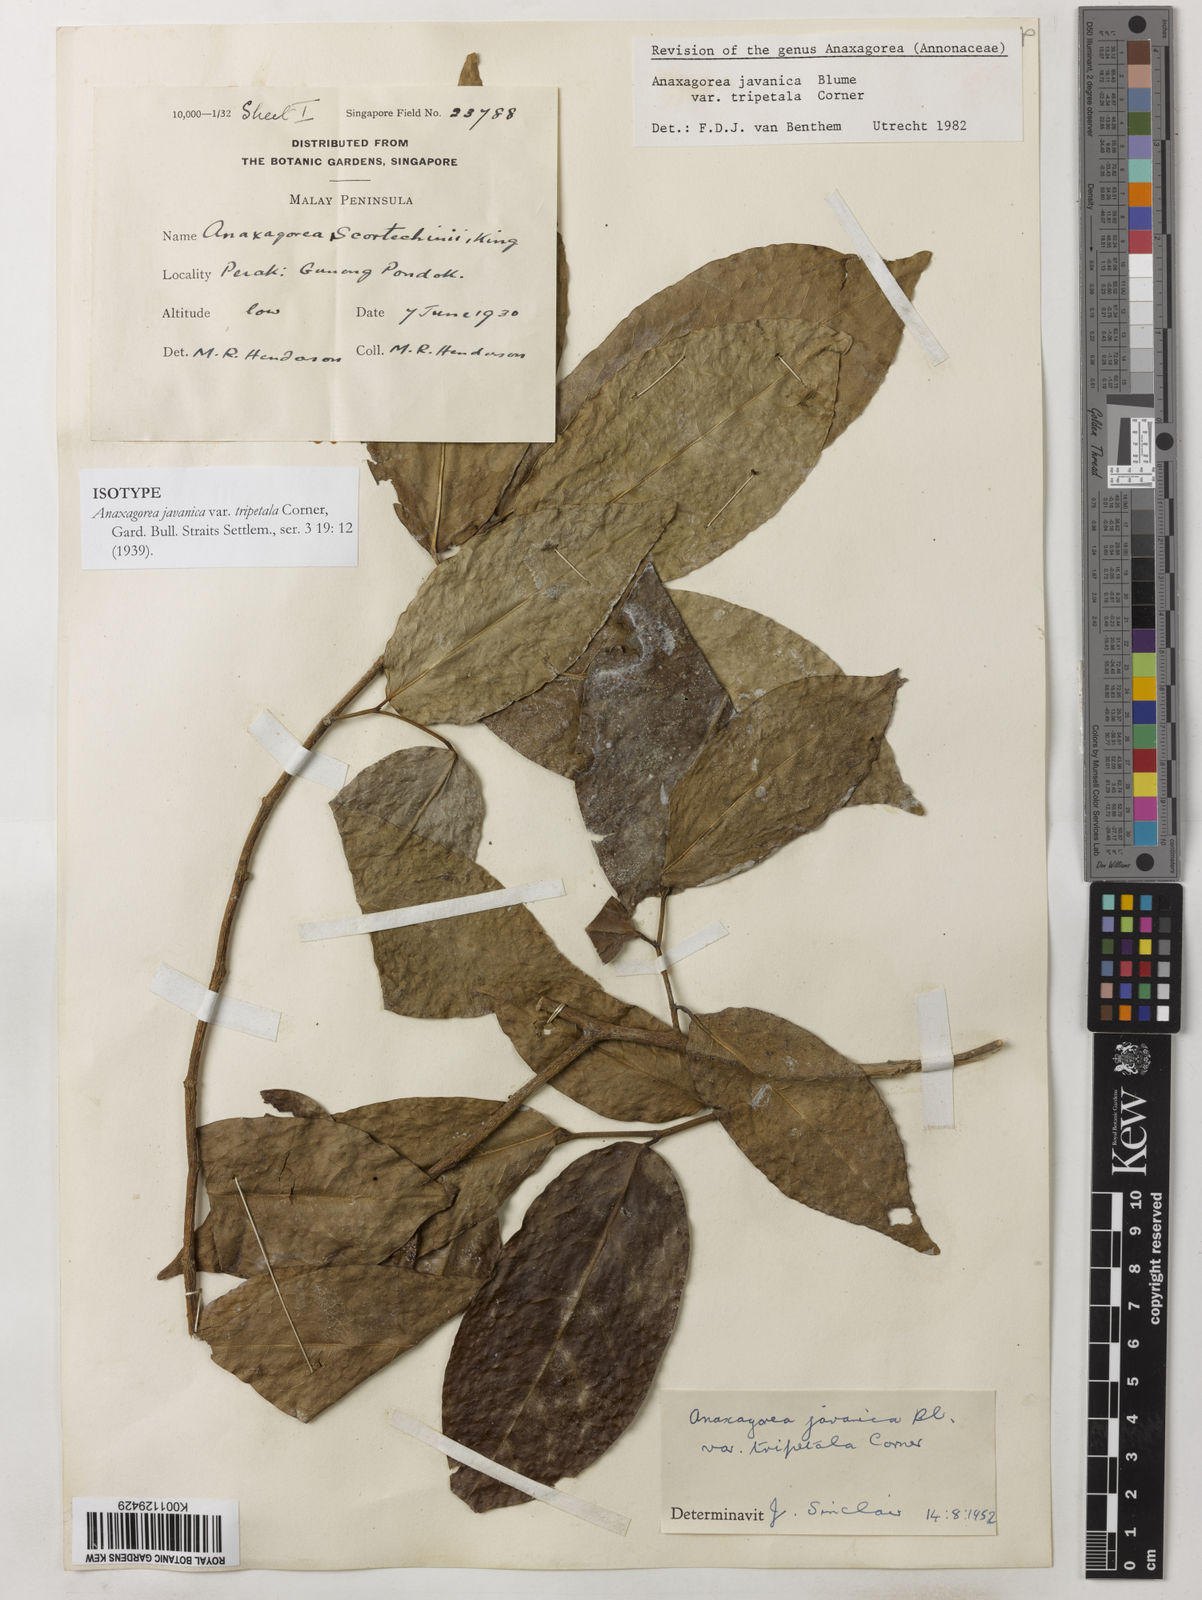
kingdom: Plantae
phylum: Tracheophyta
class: Magnoliopsida
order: Magnoliales
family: Annonaceae
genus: Anaxagorea
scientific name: Anaxagorea javanica
